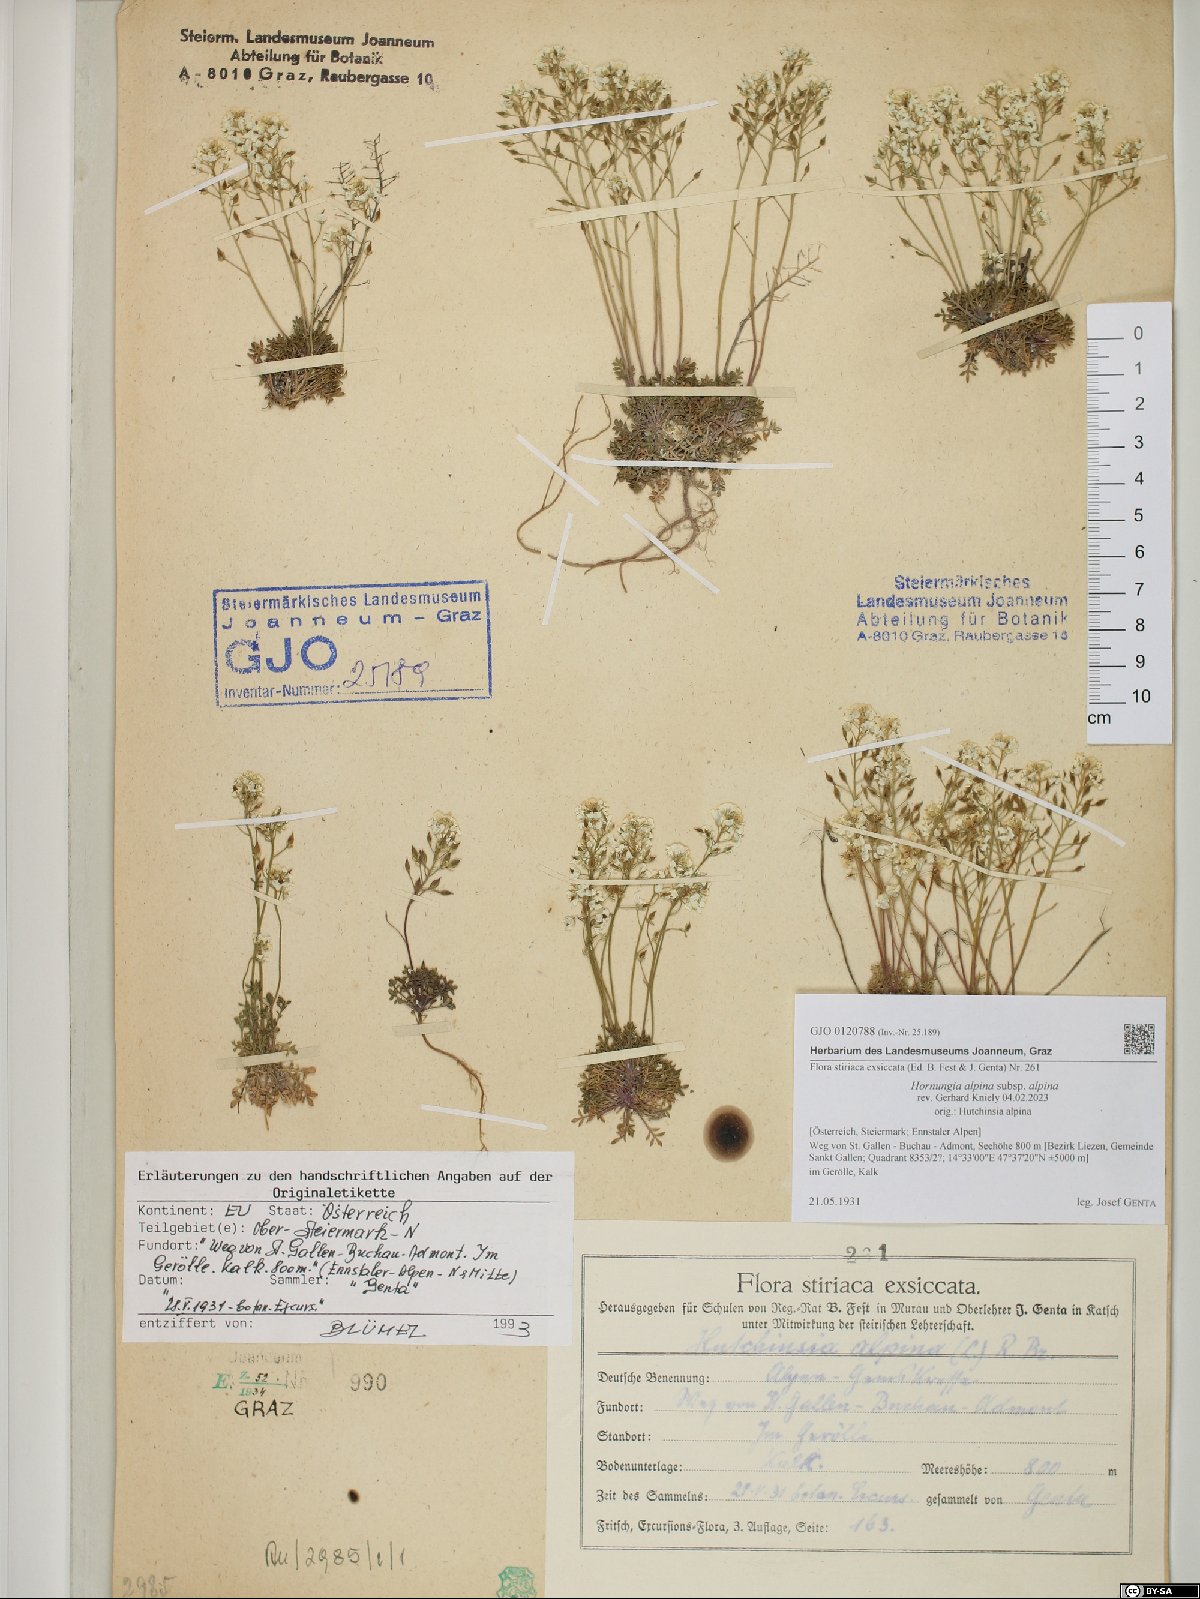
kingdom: Plantae
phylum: Tracheophyta
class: Magnoliopsida
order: Brassicales
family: Brassicaceae
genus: Hornungia
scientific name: Hornungia alpina
